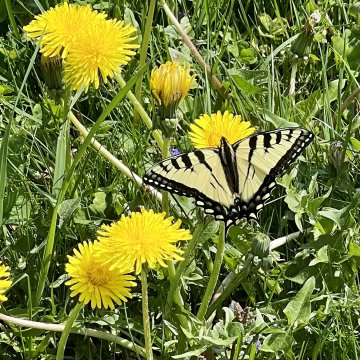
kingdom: Animalia
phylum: Arthropoda
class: Insecta
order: Lepidoptera
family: Papilionidae
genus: Pterourus
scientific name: Pterourus canadensis
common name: Canadian Tiger Swallowtail
